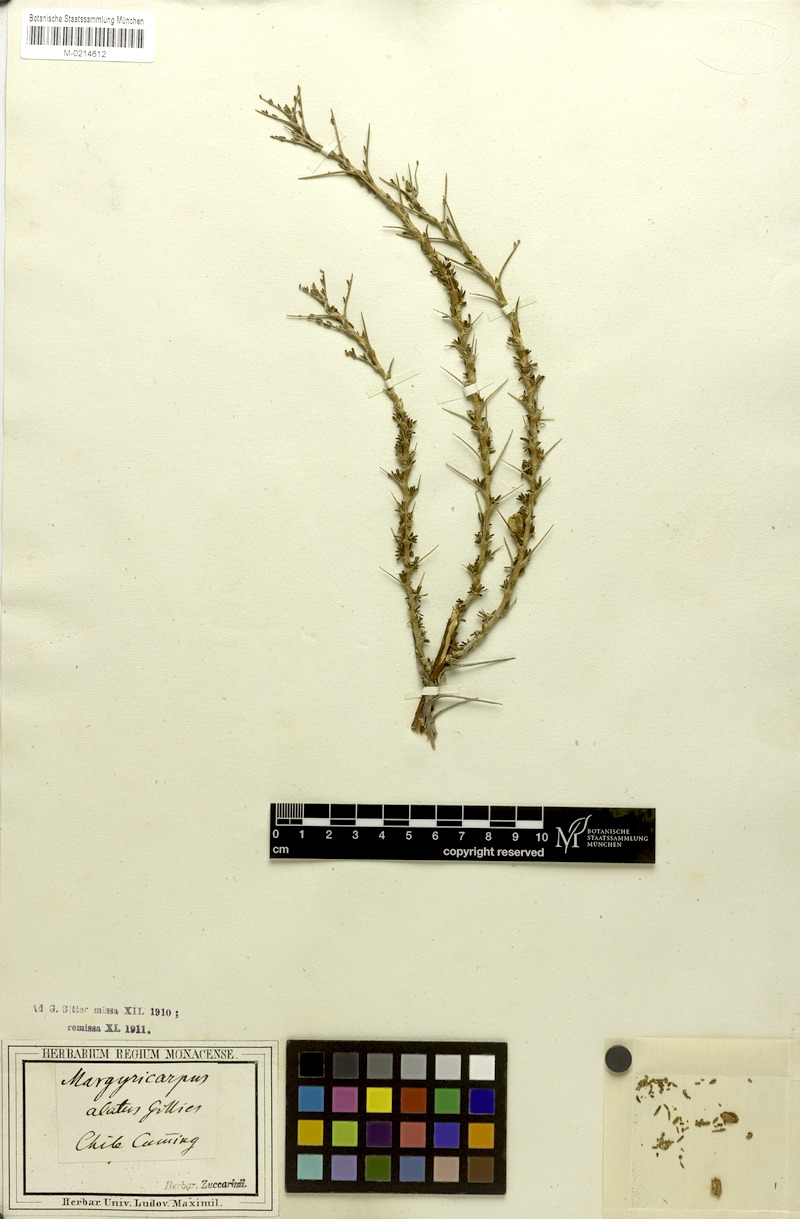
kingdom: Plantae
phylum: Tracheophyta
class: Magnoliopsida
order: Rosales
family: Rosaceae
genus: Margyricarpus
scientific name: Margyricarpus alatus
